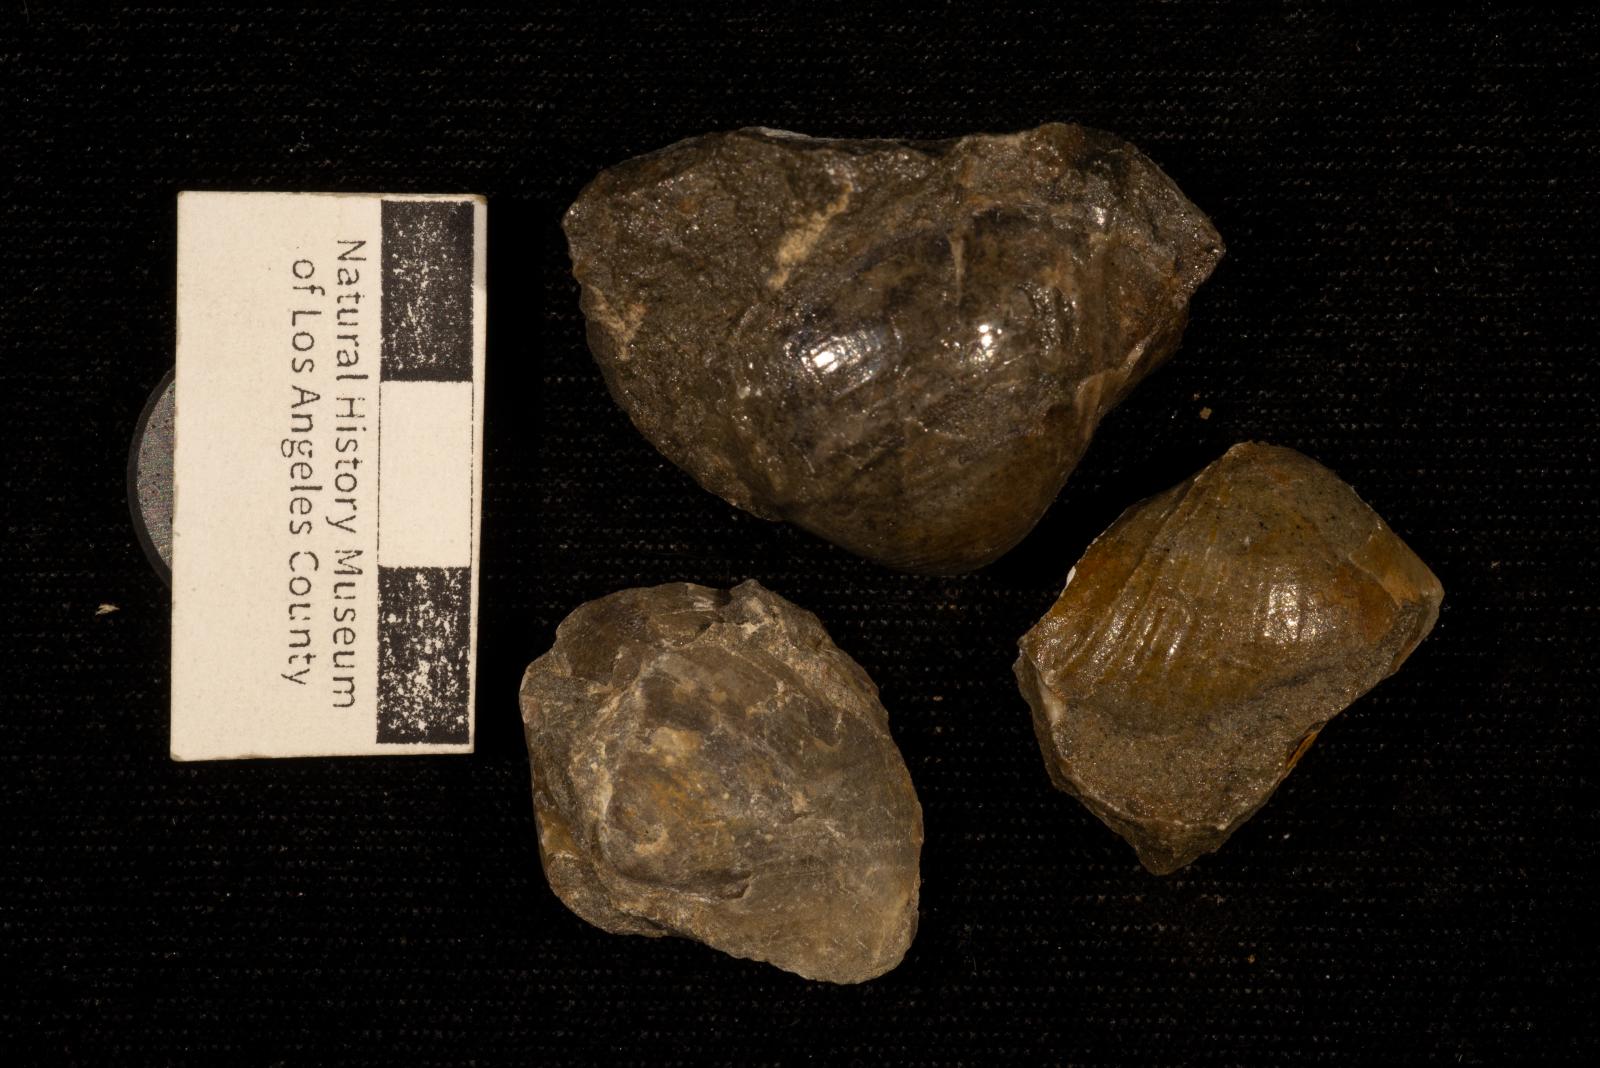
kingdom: Animalia
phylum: Mollusca
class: Bivalvia
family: Poromyidae
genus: Liopistha
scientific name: Liopistha Pholadomya anaana
